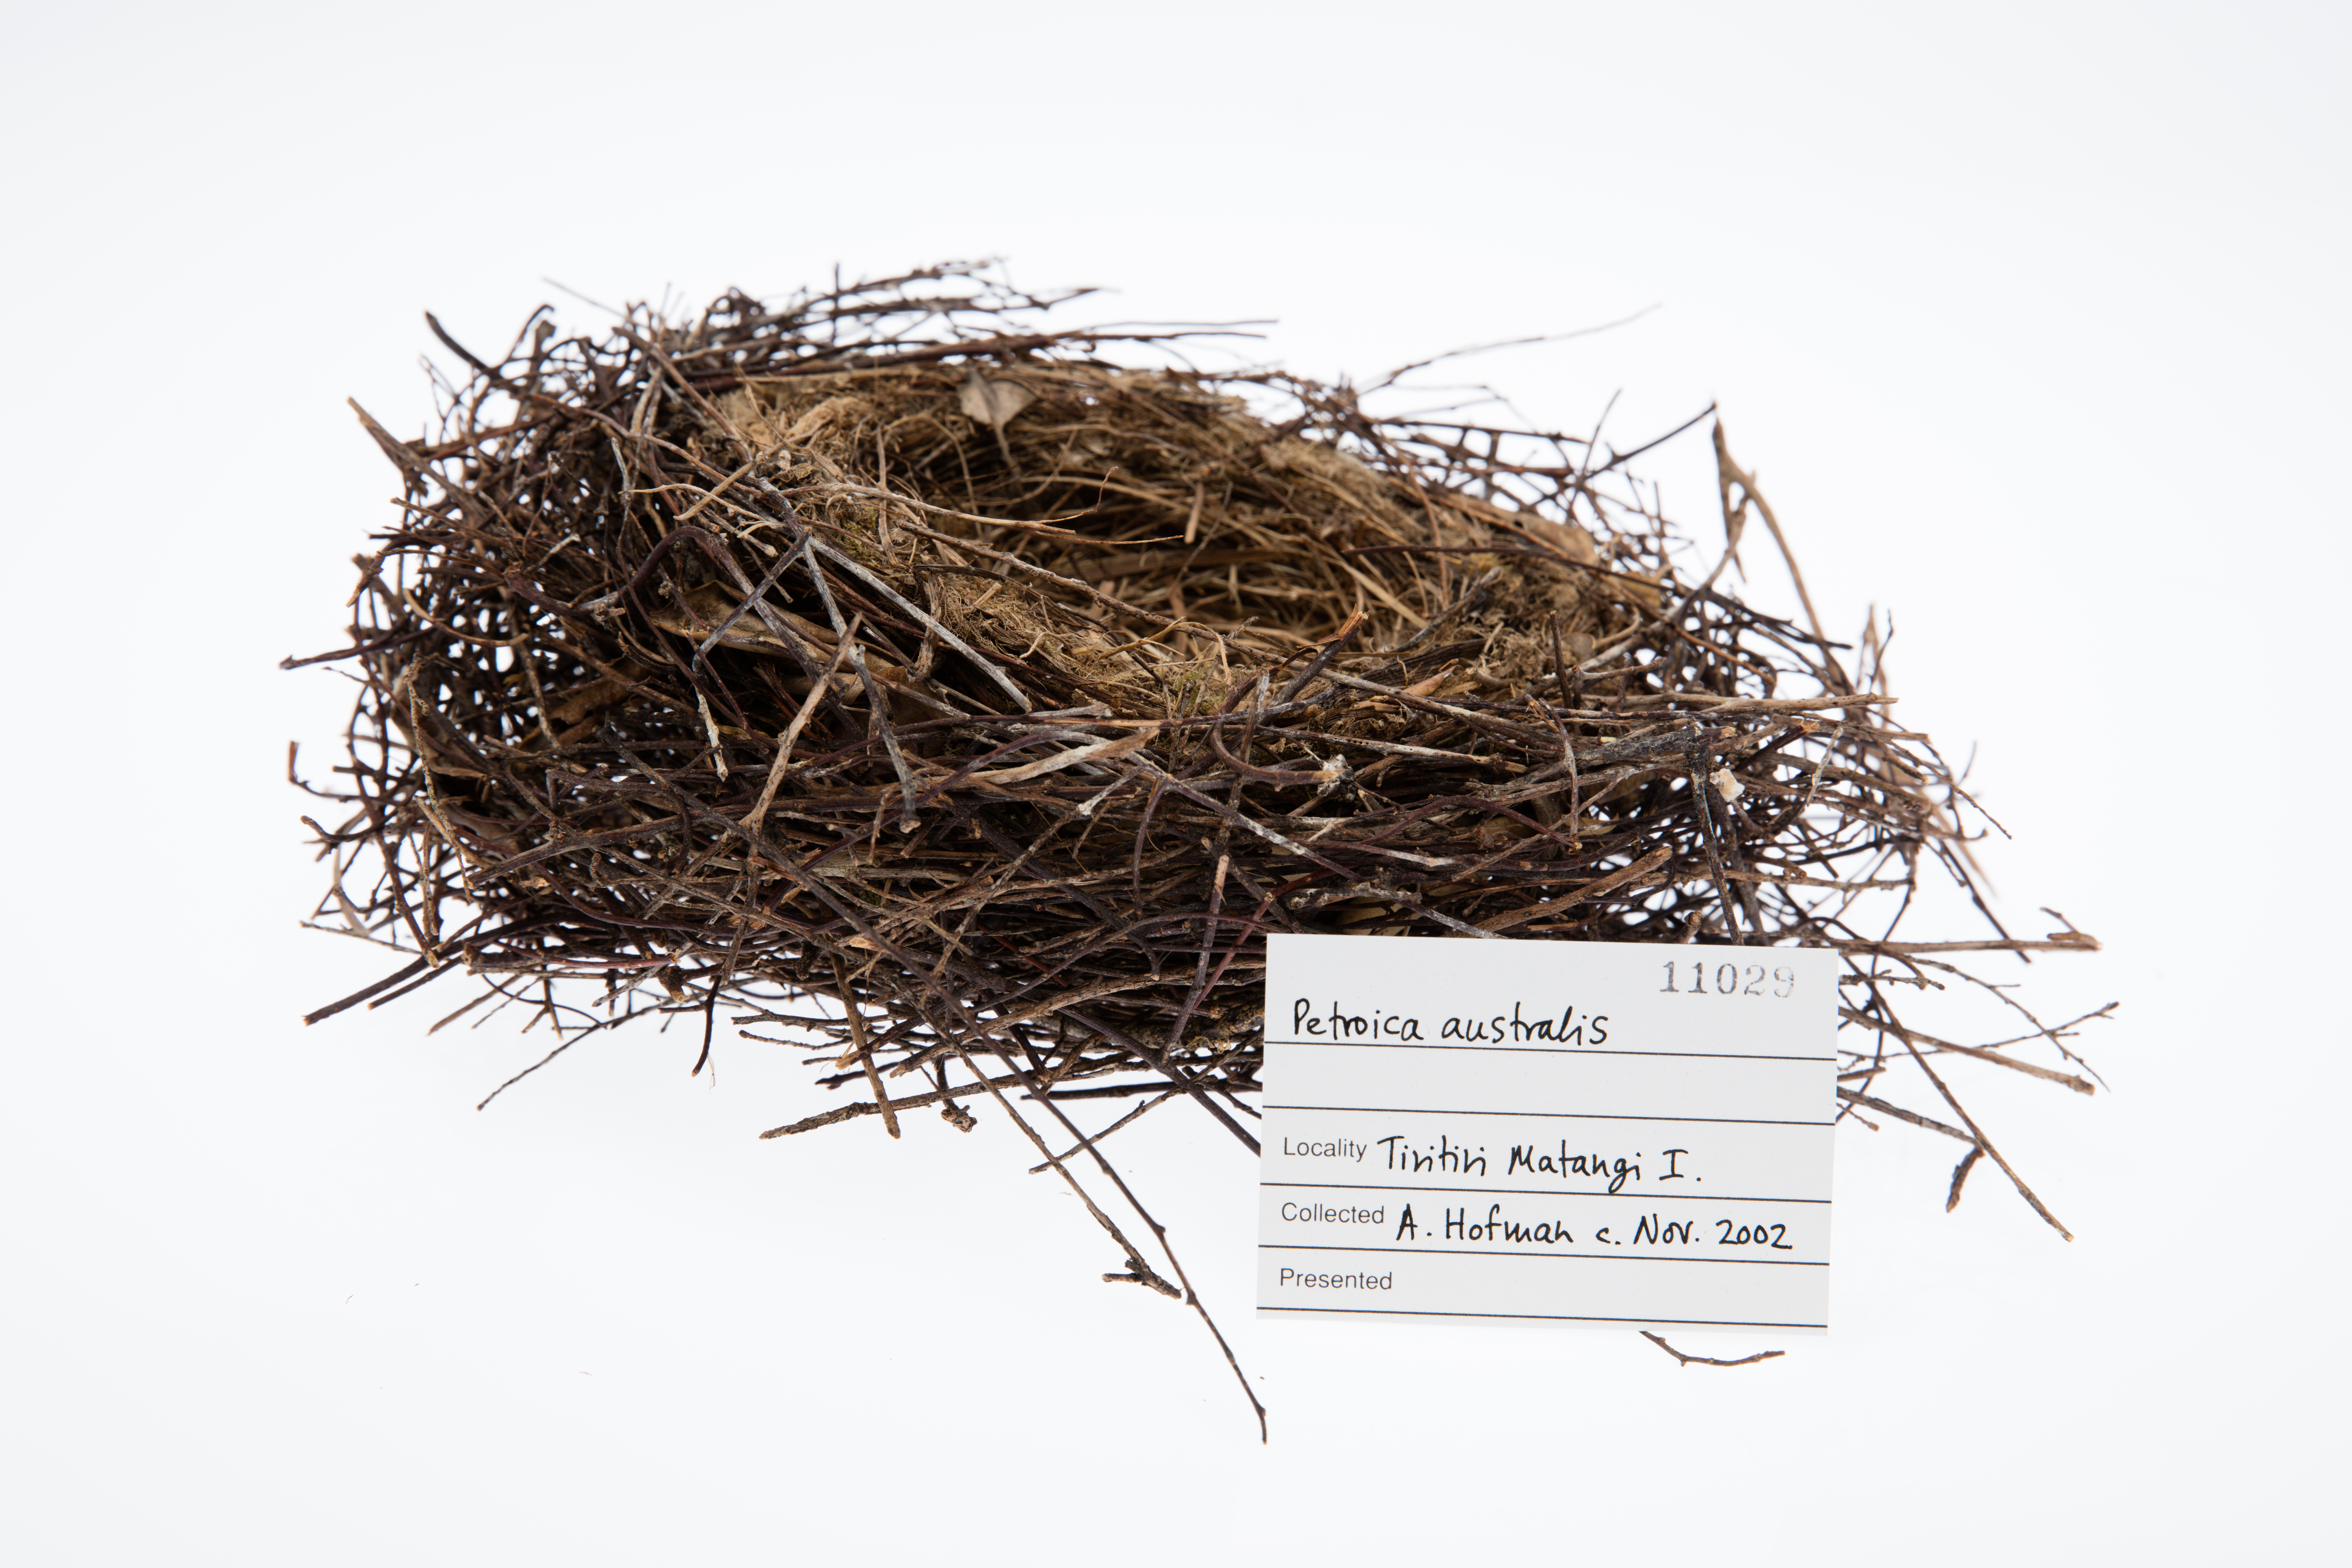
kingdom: Animalia
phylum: Chordata
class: Aves
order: Passeriformes
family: Petroicidae
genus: Petroica
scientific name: Petroica australis
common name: New zealand robin
